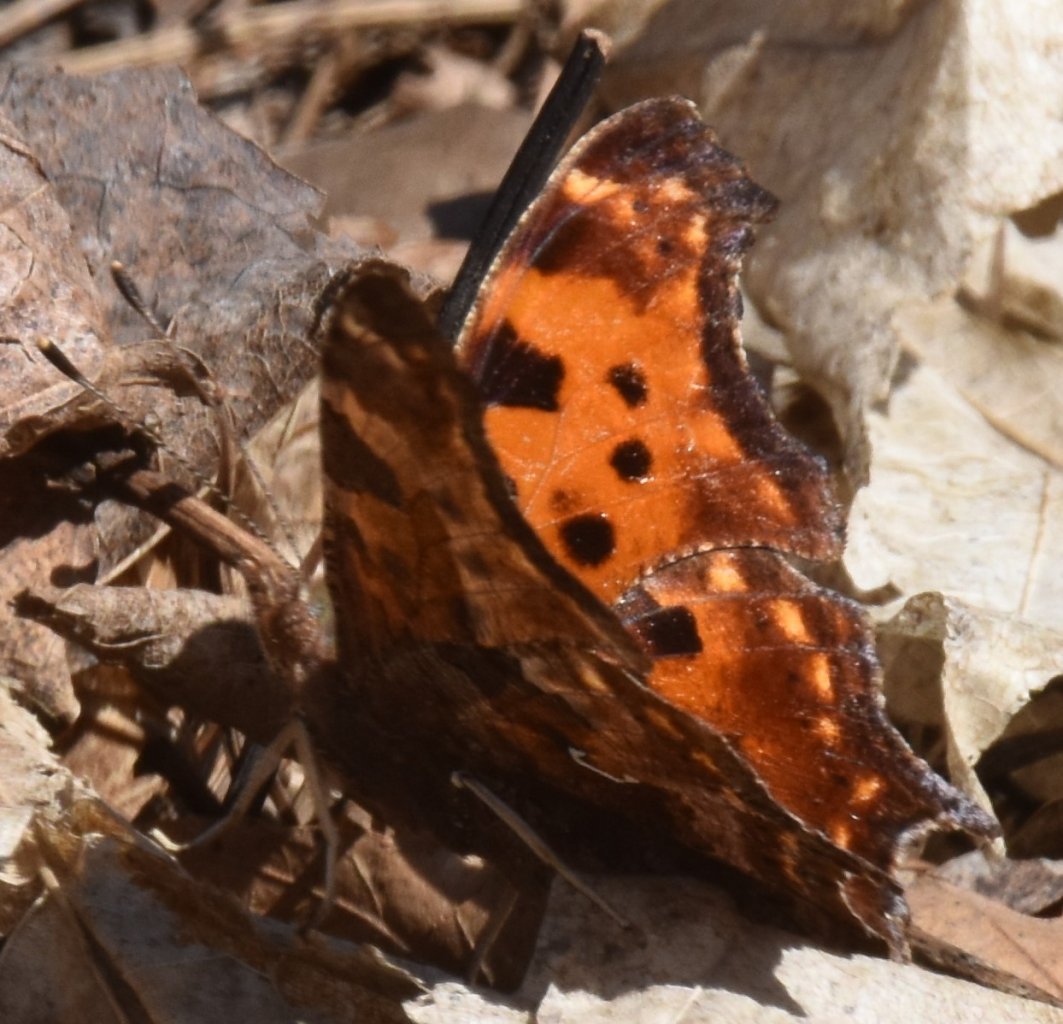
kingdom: Animalia
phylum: Arthropoda
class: Insecta
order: Lepidoptera
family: Nymphalidae
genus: Polygonia
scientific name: Polygonia comma
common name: Eastern Comma
